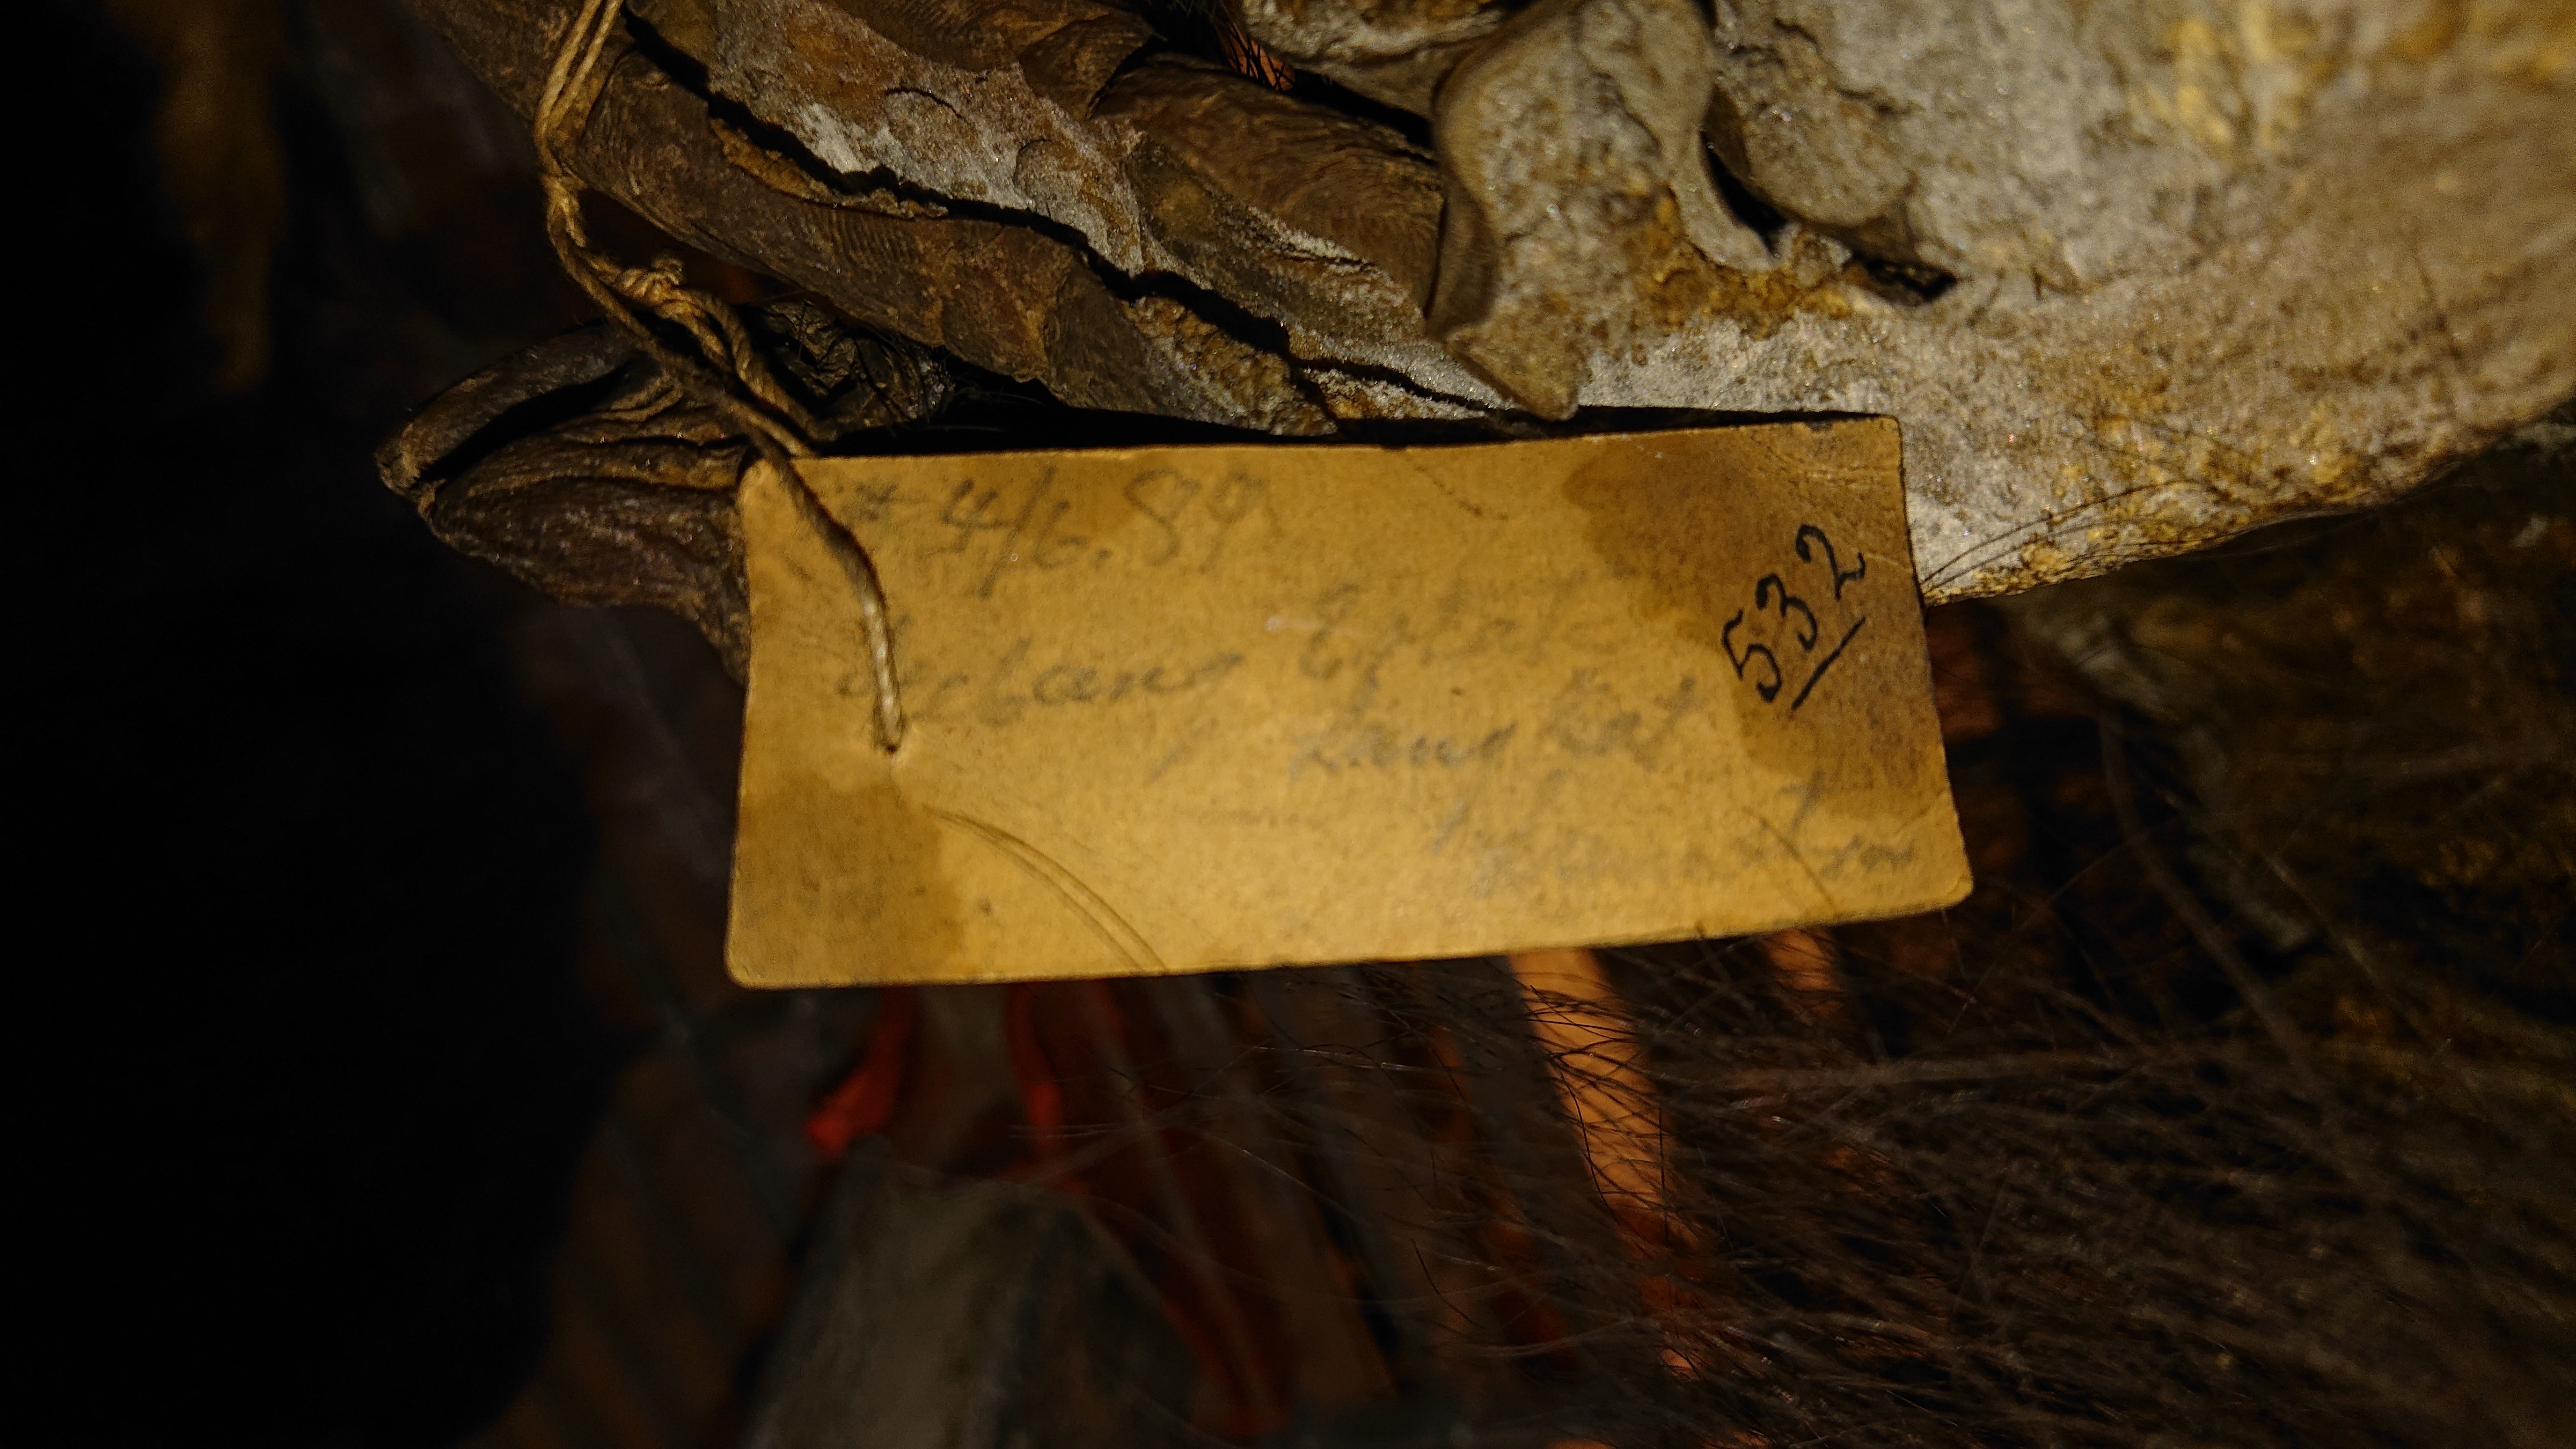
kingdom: Animalia
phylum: Chordata
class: Mammalia
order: Primates
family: Hominidae
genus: Pongo
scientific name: Pongo pygmaeus
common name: Bornean orangutan
